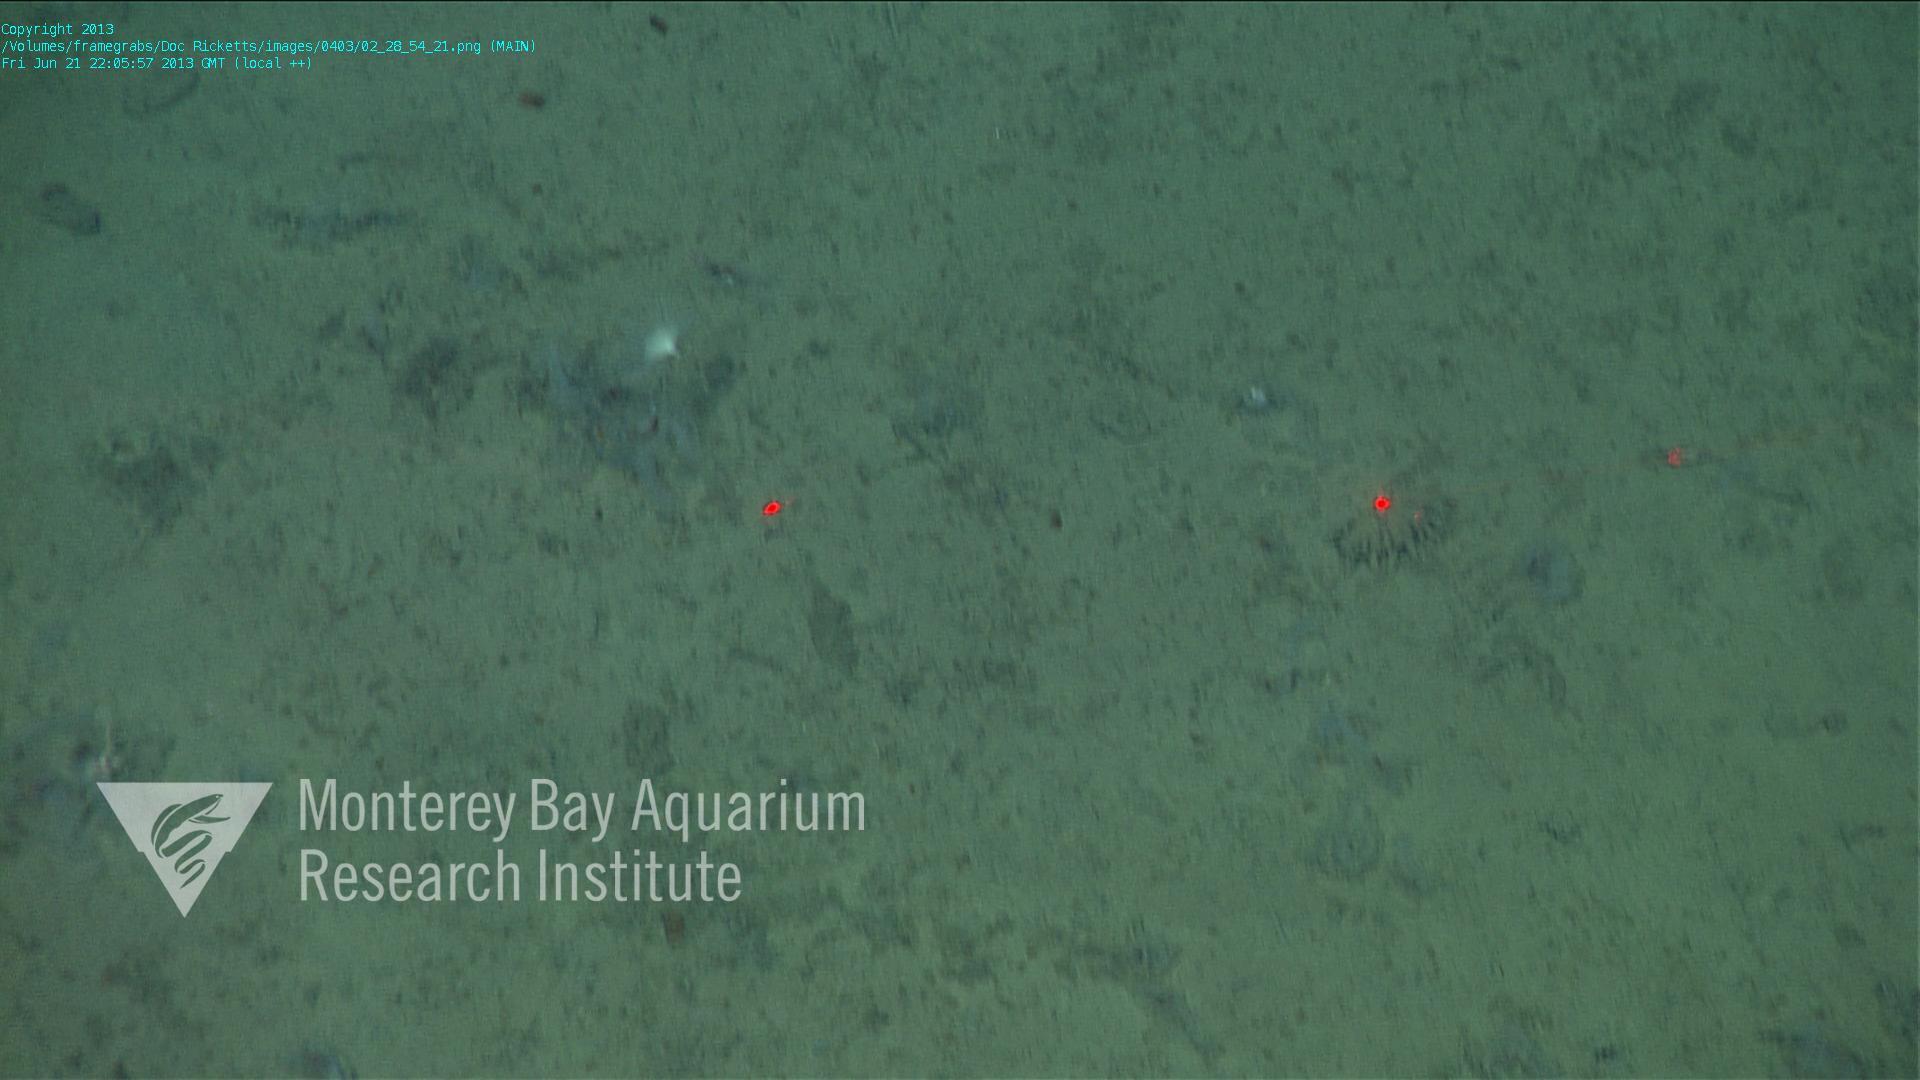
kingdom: Animalia
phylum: Porifera
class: Demospongiae
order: Poecilosclerida
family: Cladorhizidae
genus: Cladorhiza
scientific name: Cladorhiza
